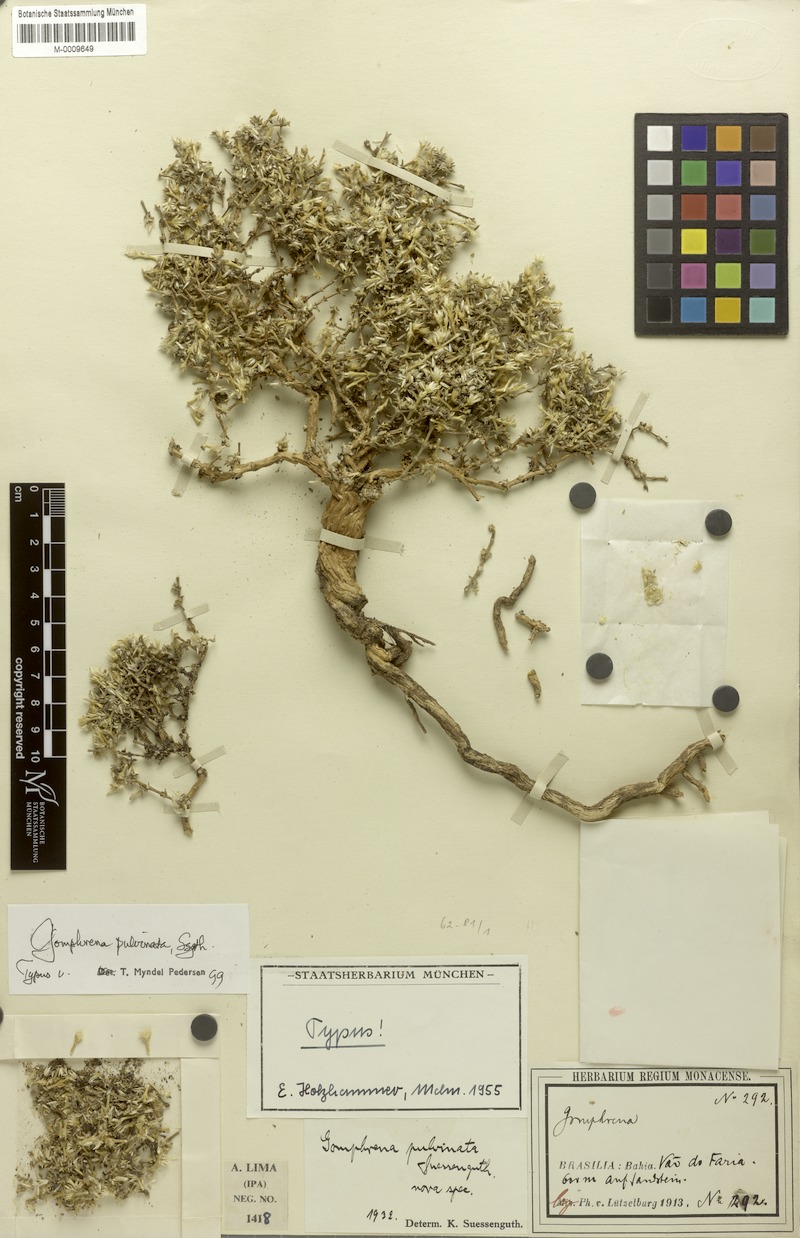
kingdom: Plantae
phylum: Tracheophyta
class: Magnoliopsida
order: Caryophyllales
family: Amaranthaceae
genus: Gomphrena
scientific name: Gomphrena pulvinata
